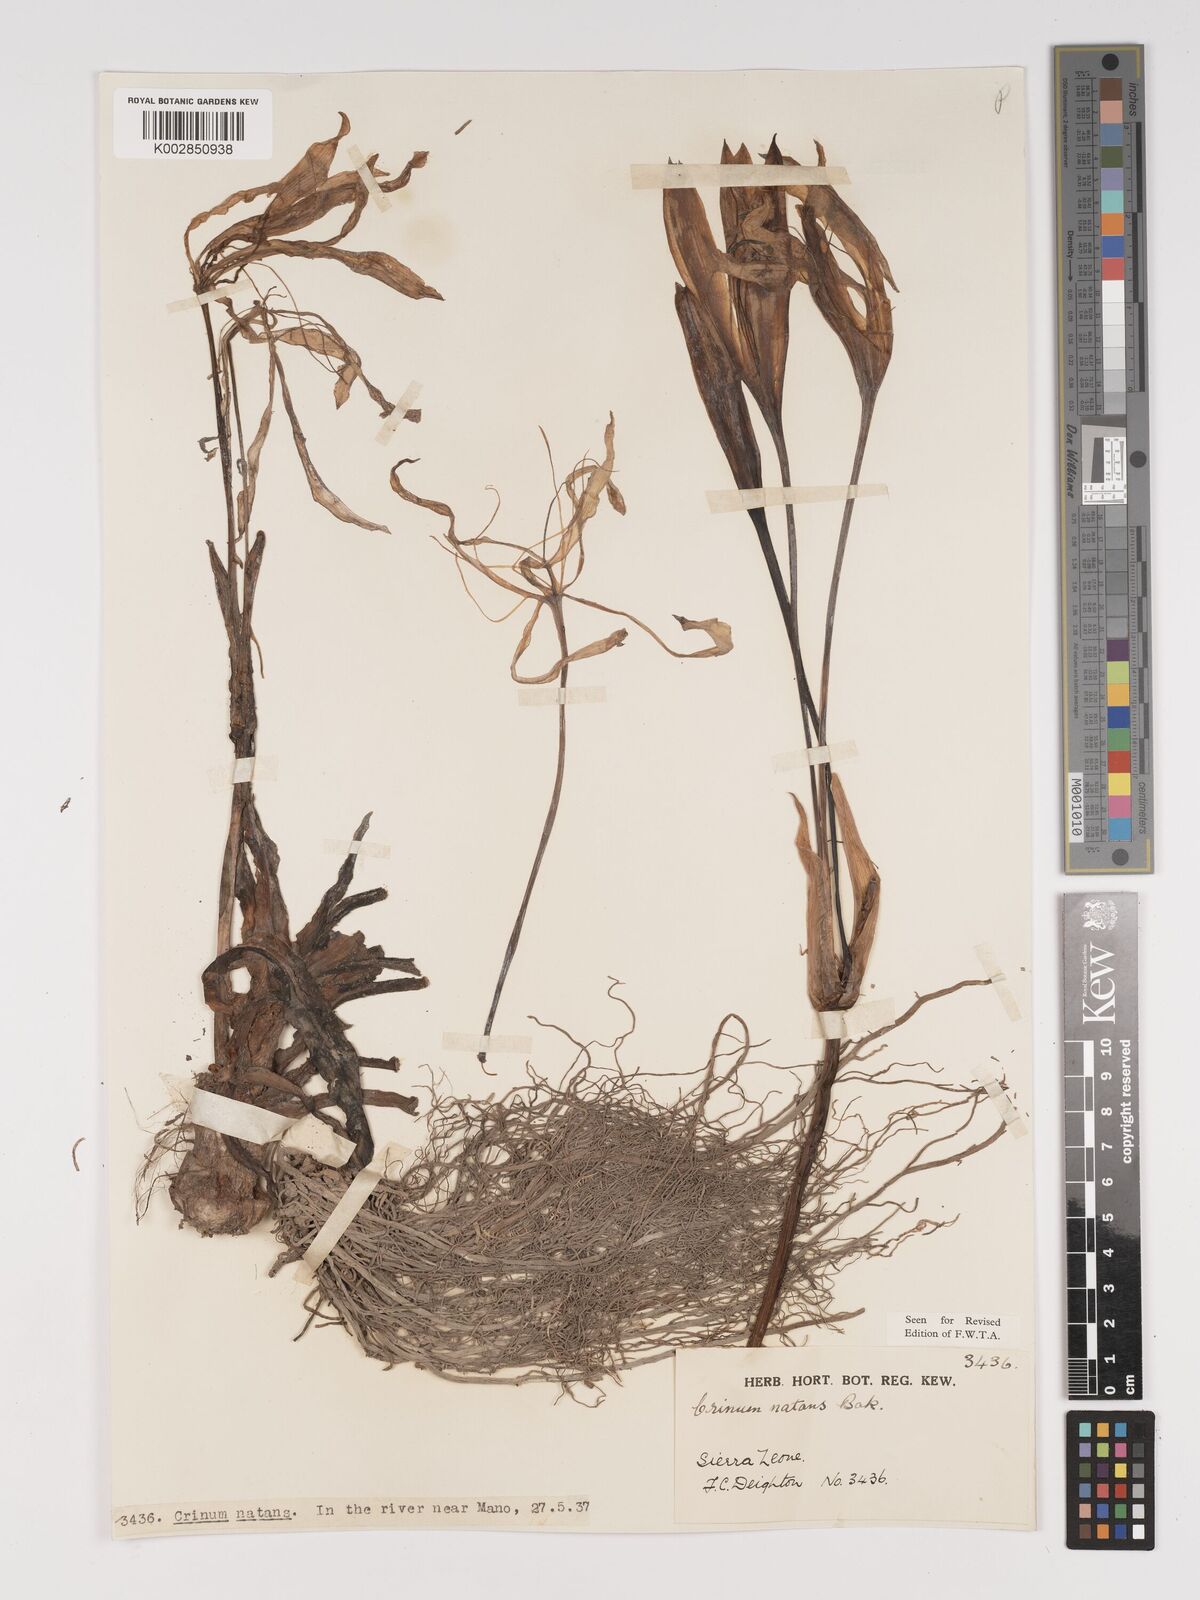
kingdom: Plantae
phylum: Tracheophyta
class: Liliopsida
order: Asparagales
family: Amaryllidaceae
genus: Crinum
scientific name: Crinum natans
